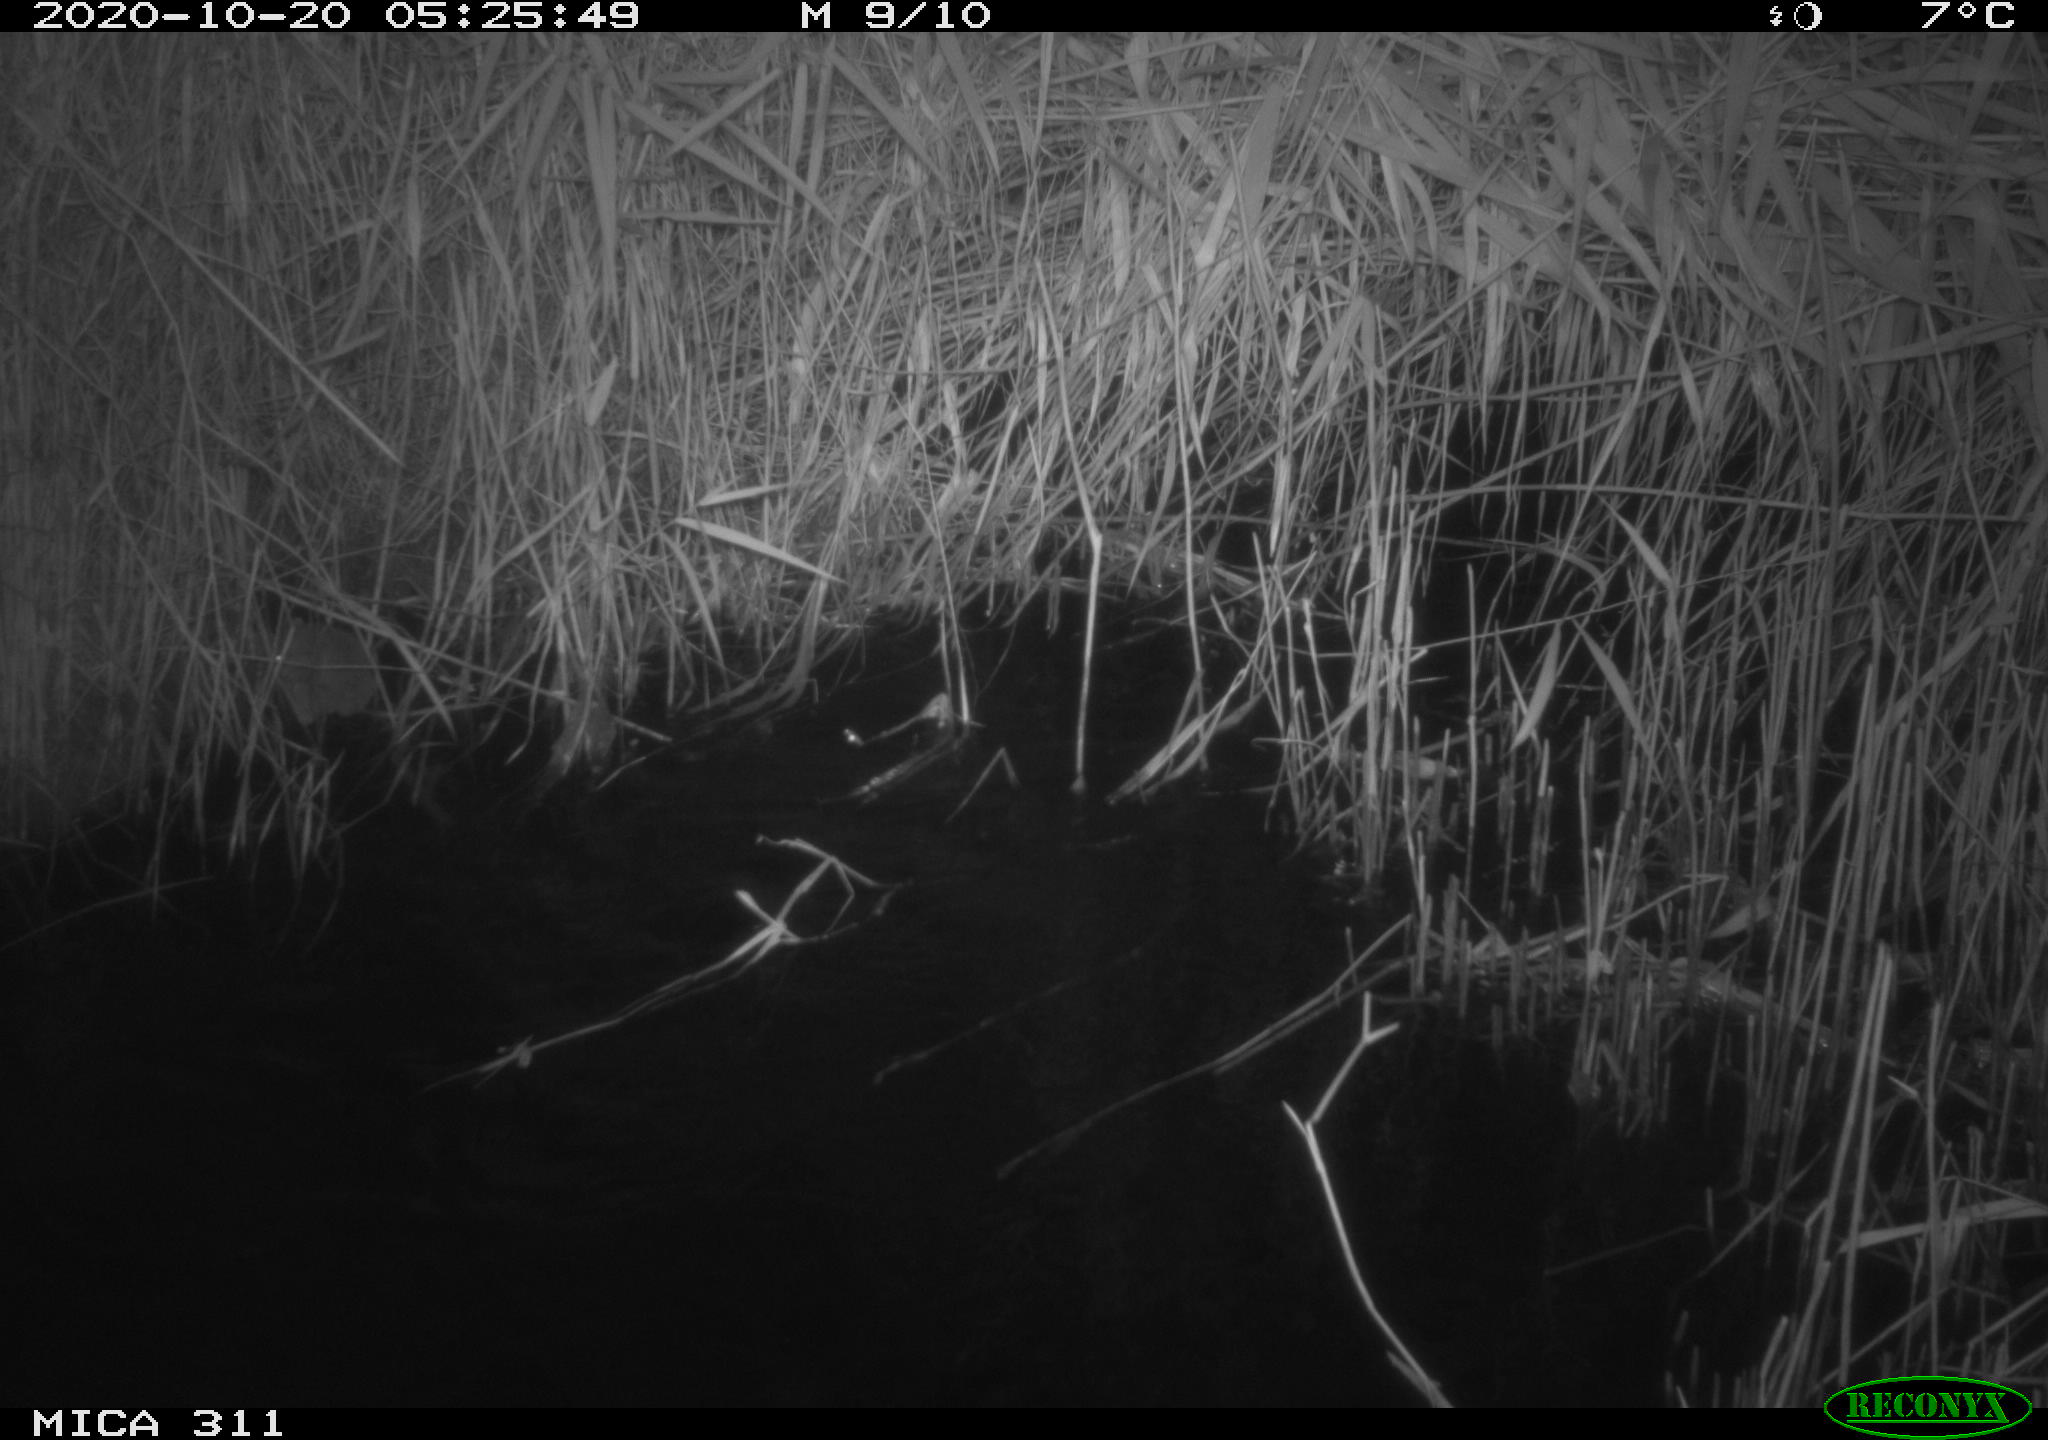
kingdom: Animalia
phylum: Chordata
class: Mammalia
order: Rodentia
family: Muridae
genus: Apodemus
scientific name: Apodemus sylvaticus
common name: Wood mouse
